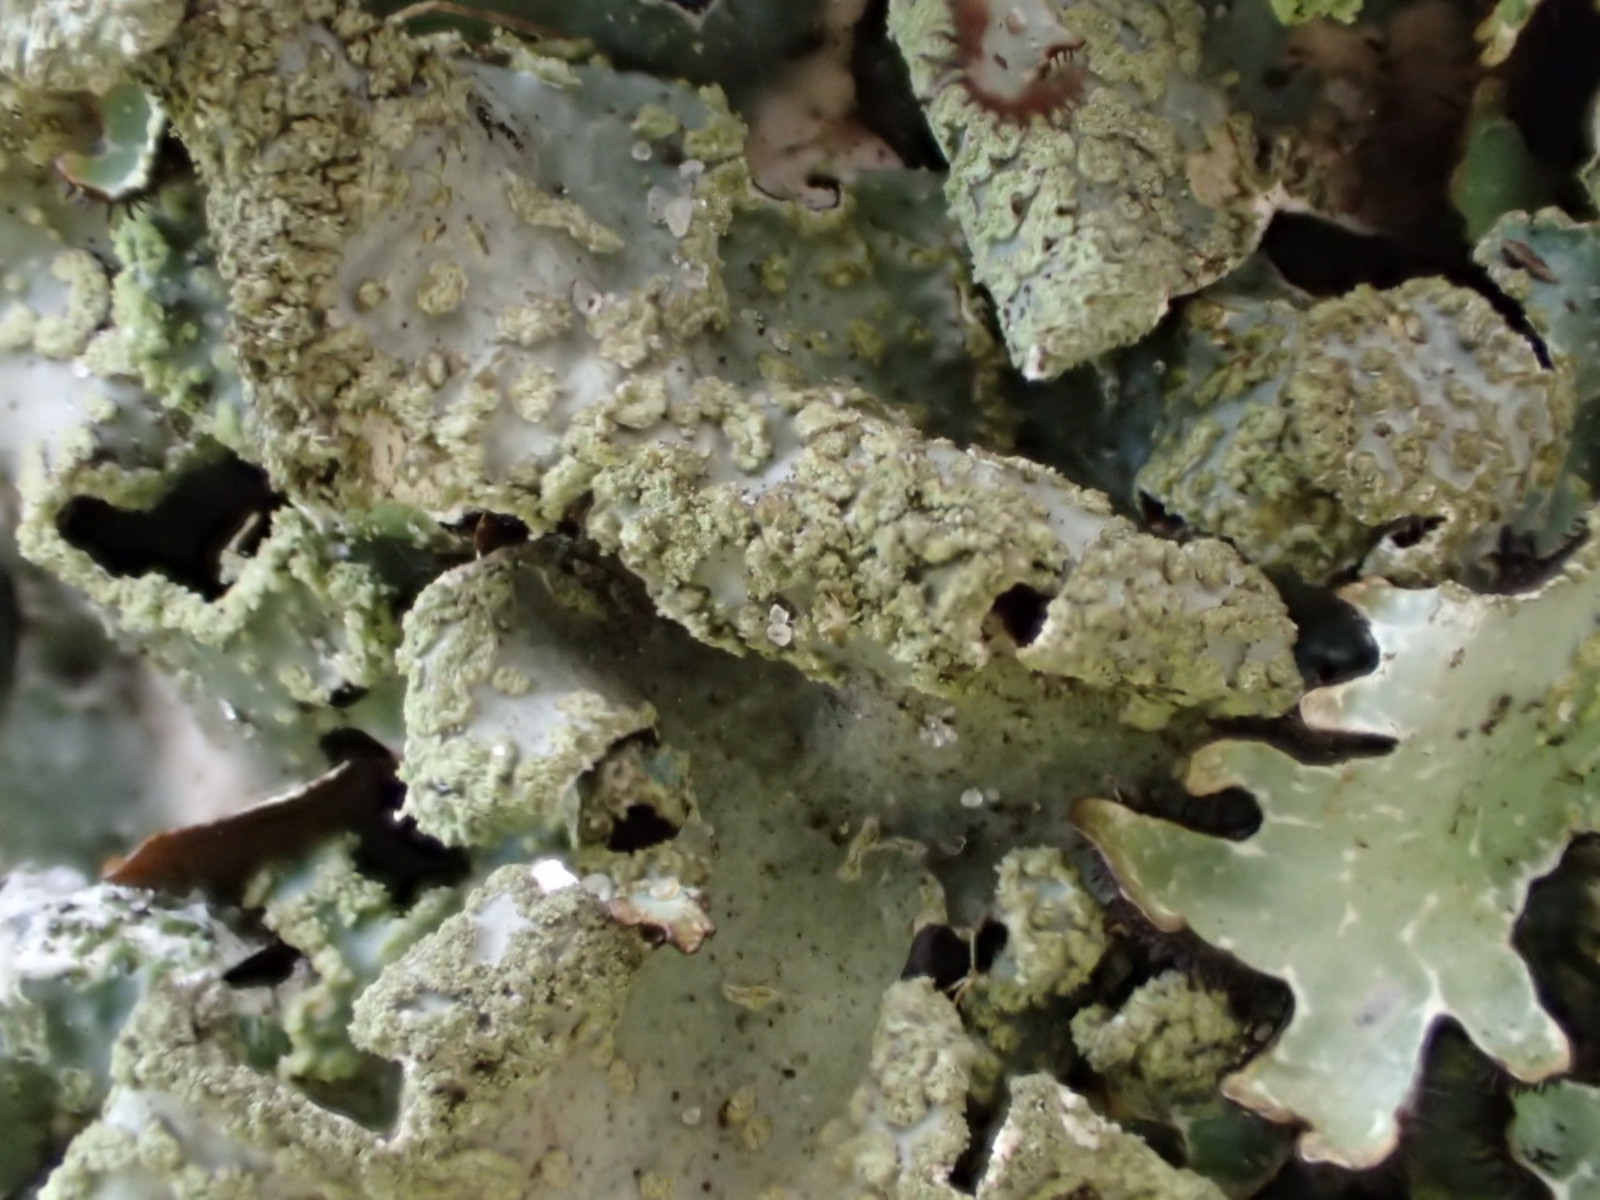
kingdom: Fungi
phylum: Ascomycota
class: Lecanoromycetes
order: Lecanorales
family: Parmeliaceae
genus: Parmelia
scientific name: Parmelia sulcata
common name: rynket skållav
